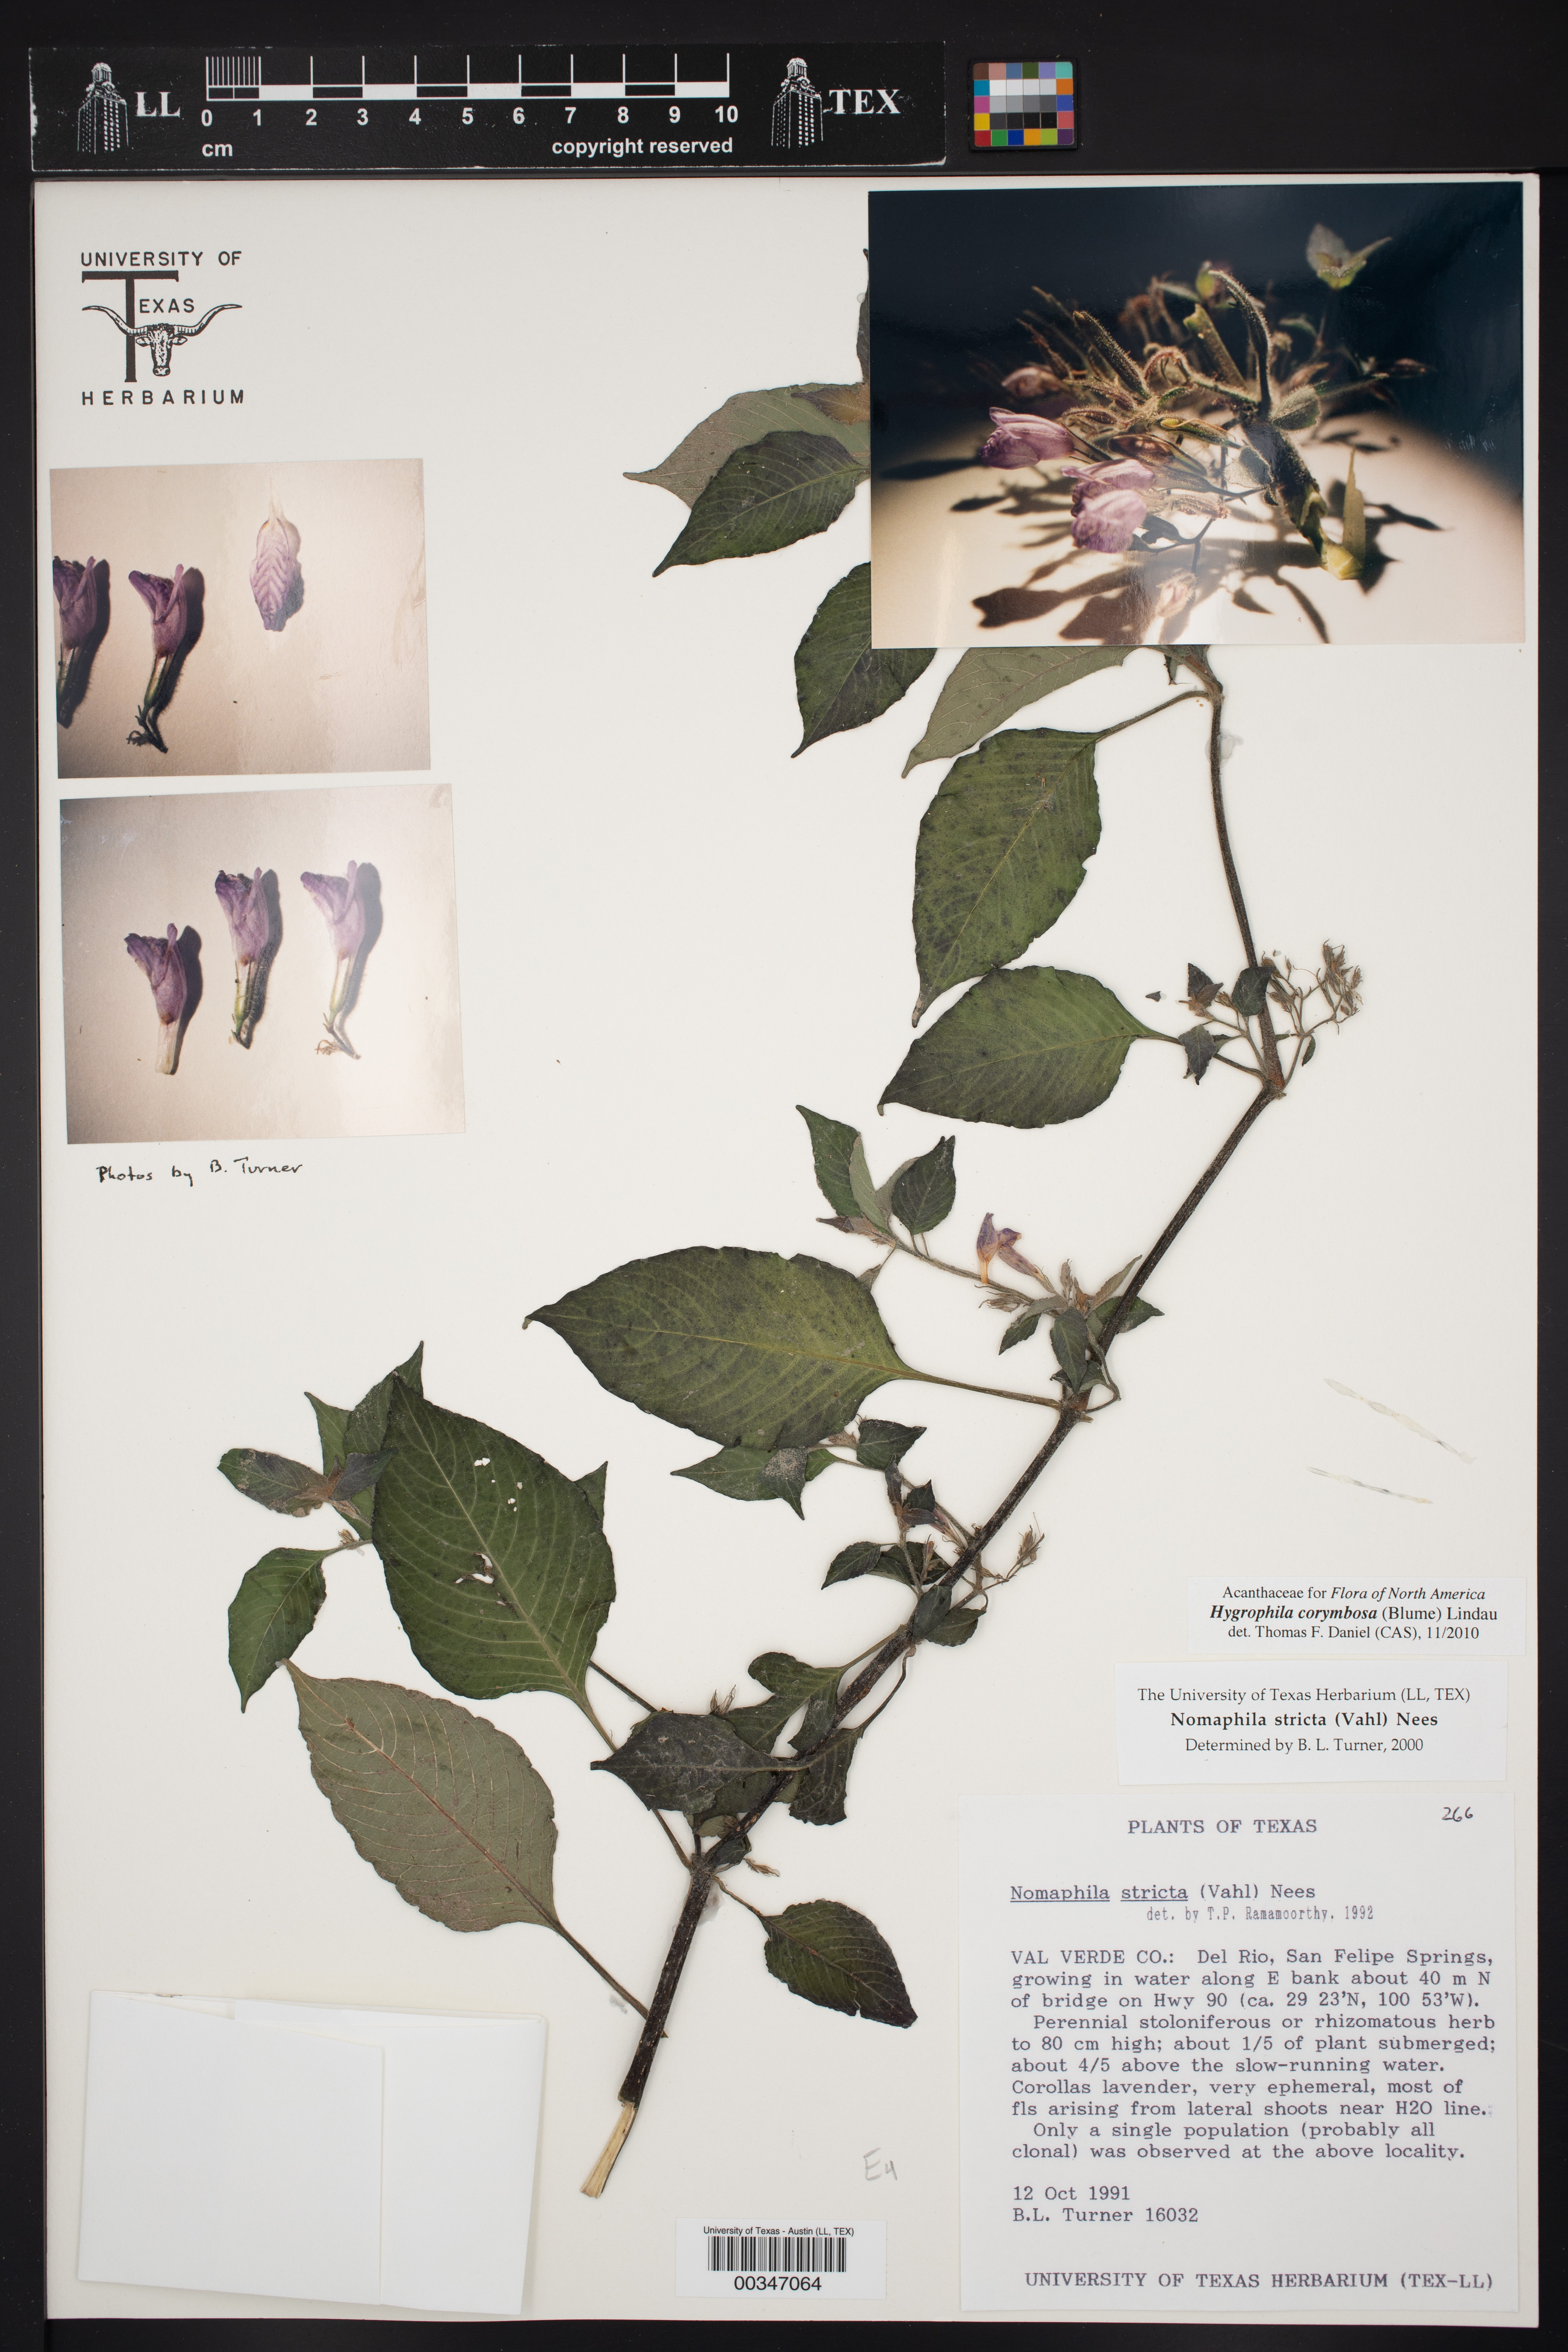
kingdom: Plantae
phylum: Tracheophyta
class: Magnoliopsida
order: Lamiales
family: Acanthaceae
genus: Hygrophila
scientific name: Hygrophila corymbosa
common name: Starhorn
